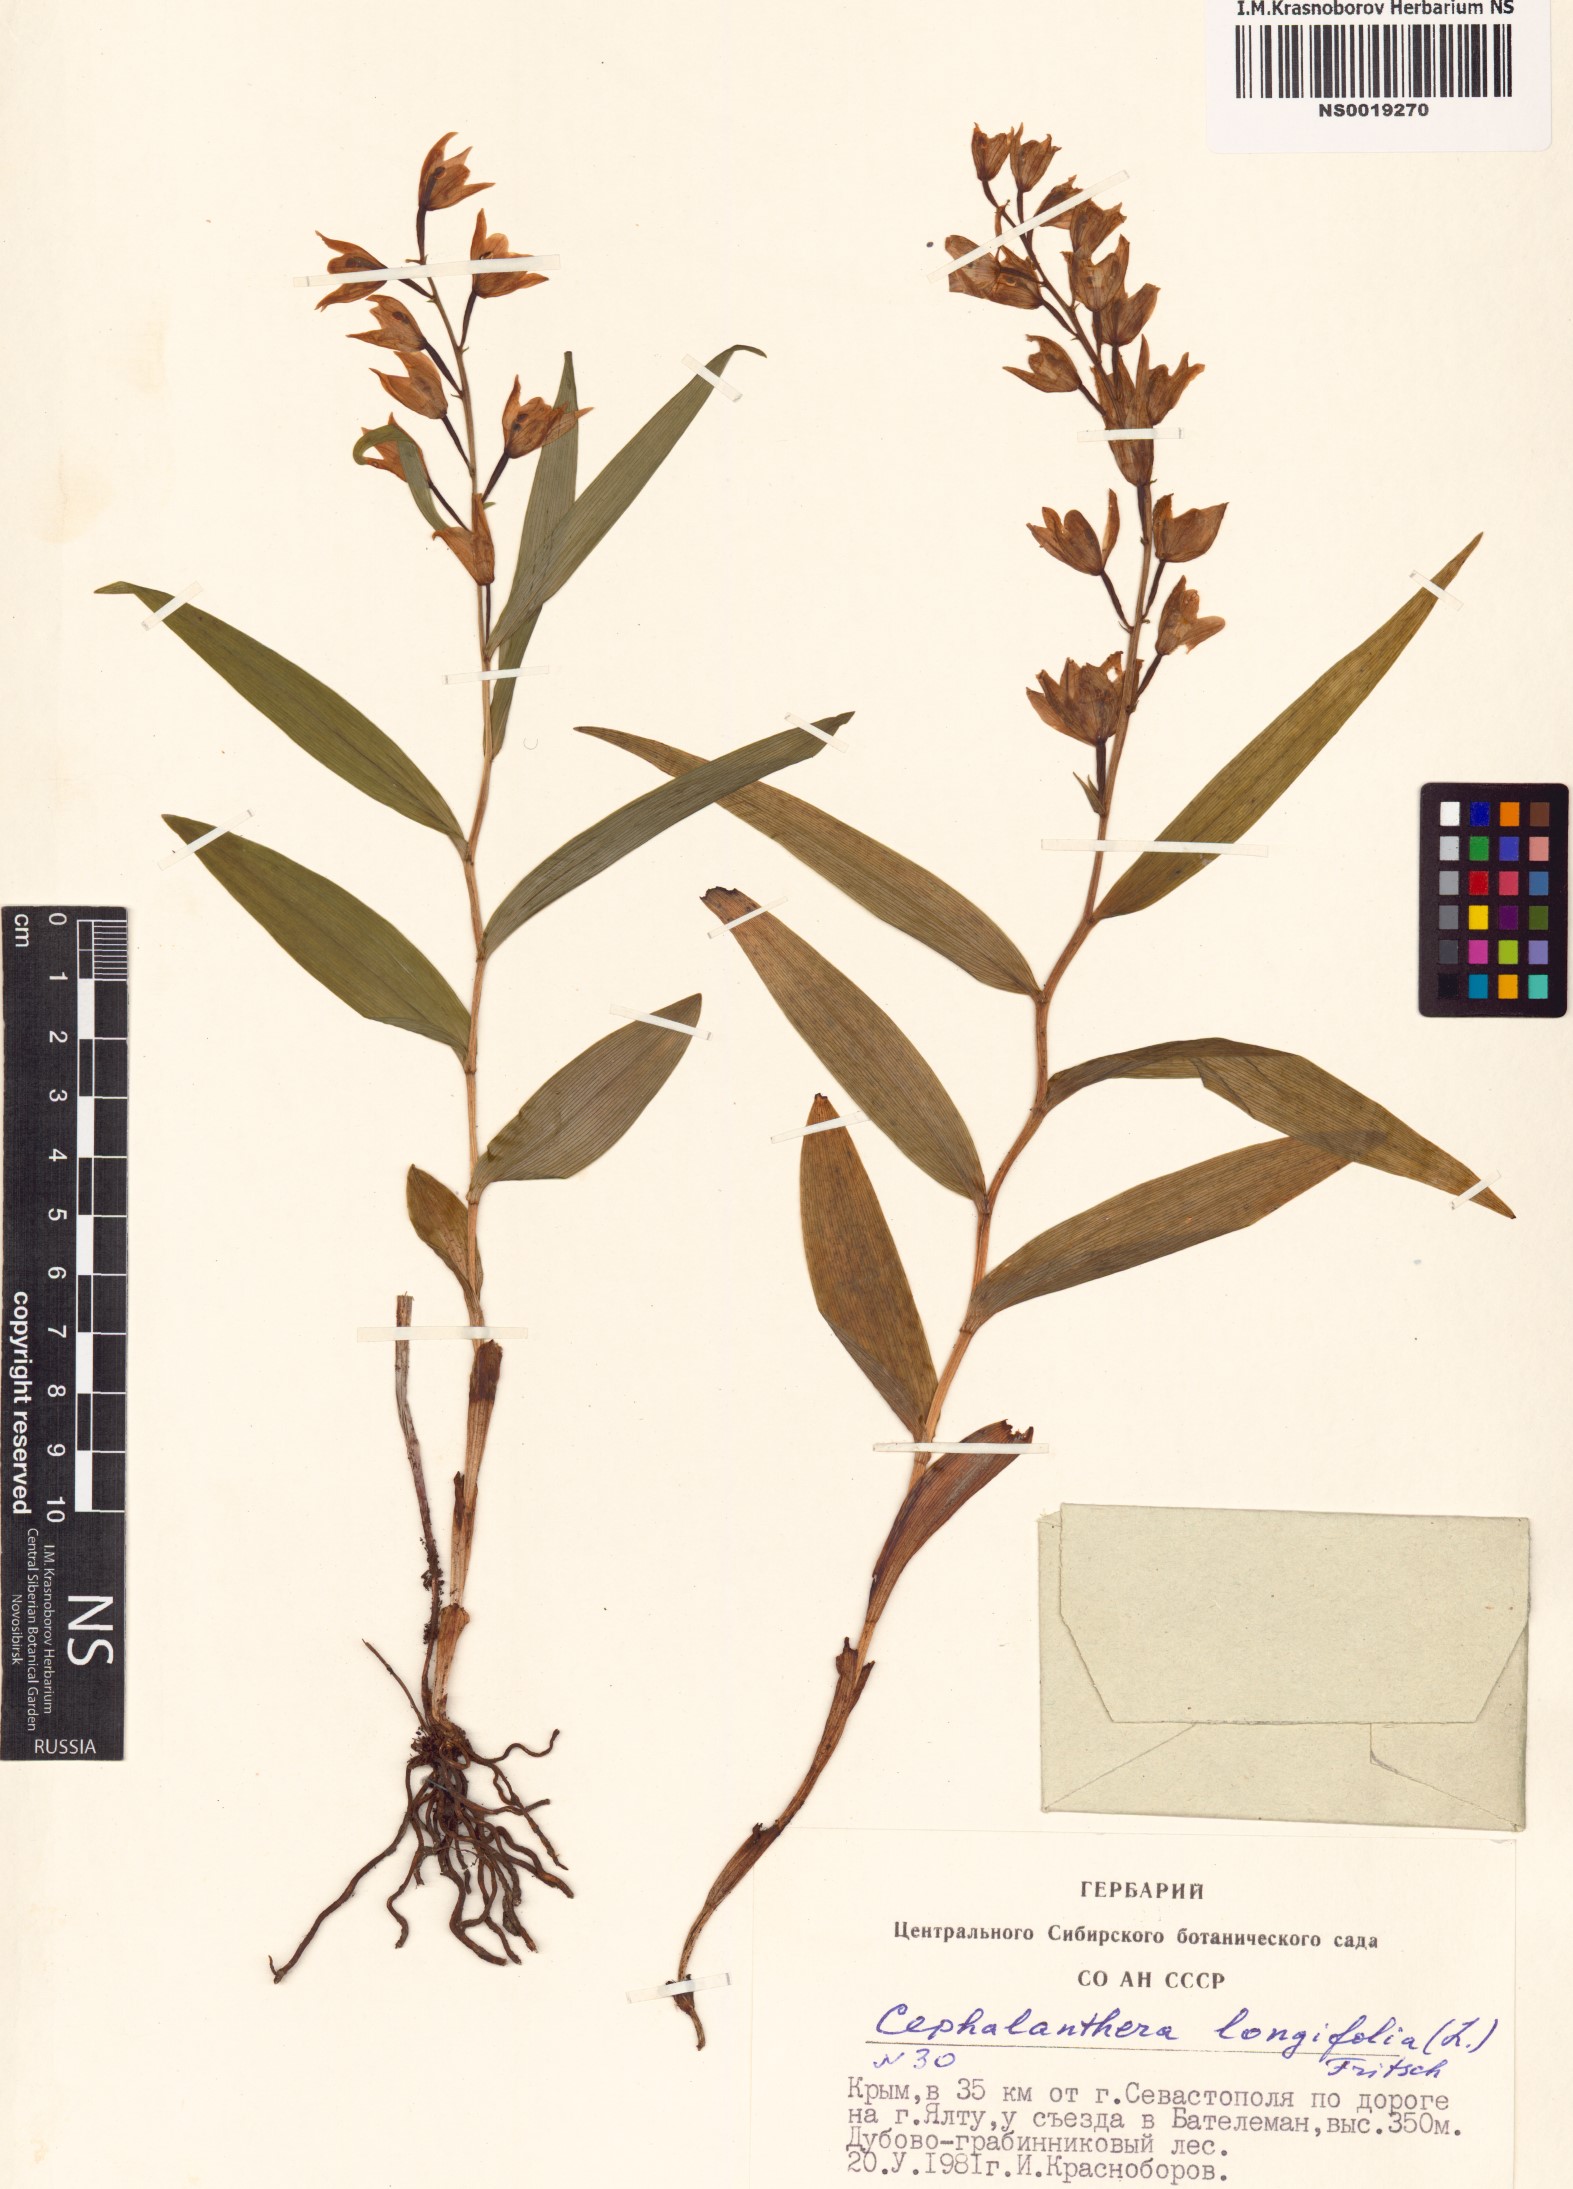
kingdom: Plantae
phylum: Tracheophyta
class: Liliopsida
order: Asparagales
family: Orchidaceae
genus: Cephalanthera
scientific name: Cephalanthera longifolia
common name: Narrow-leaved helleborine
